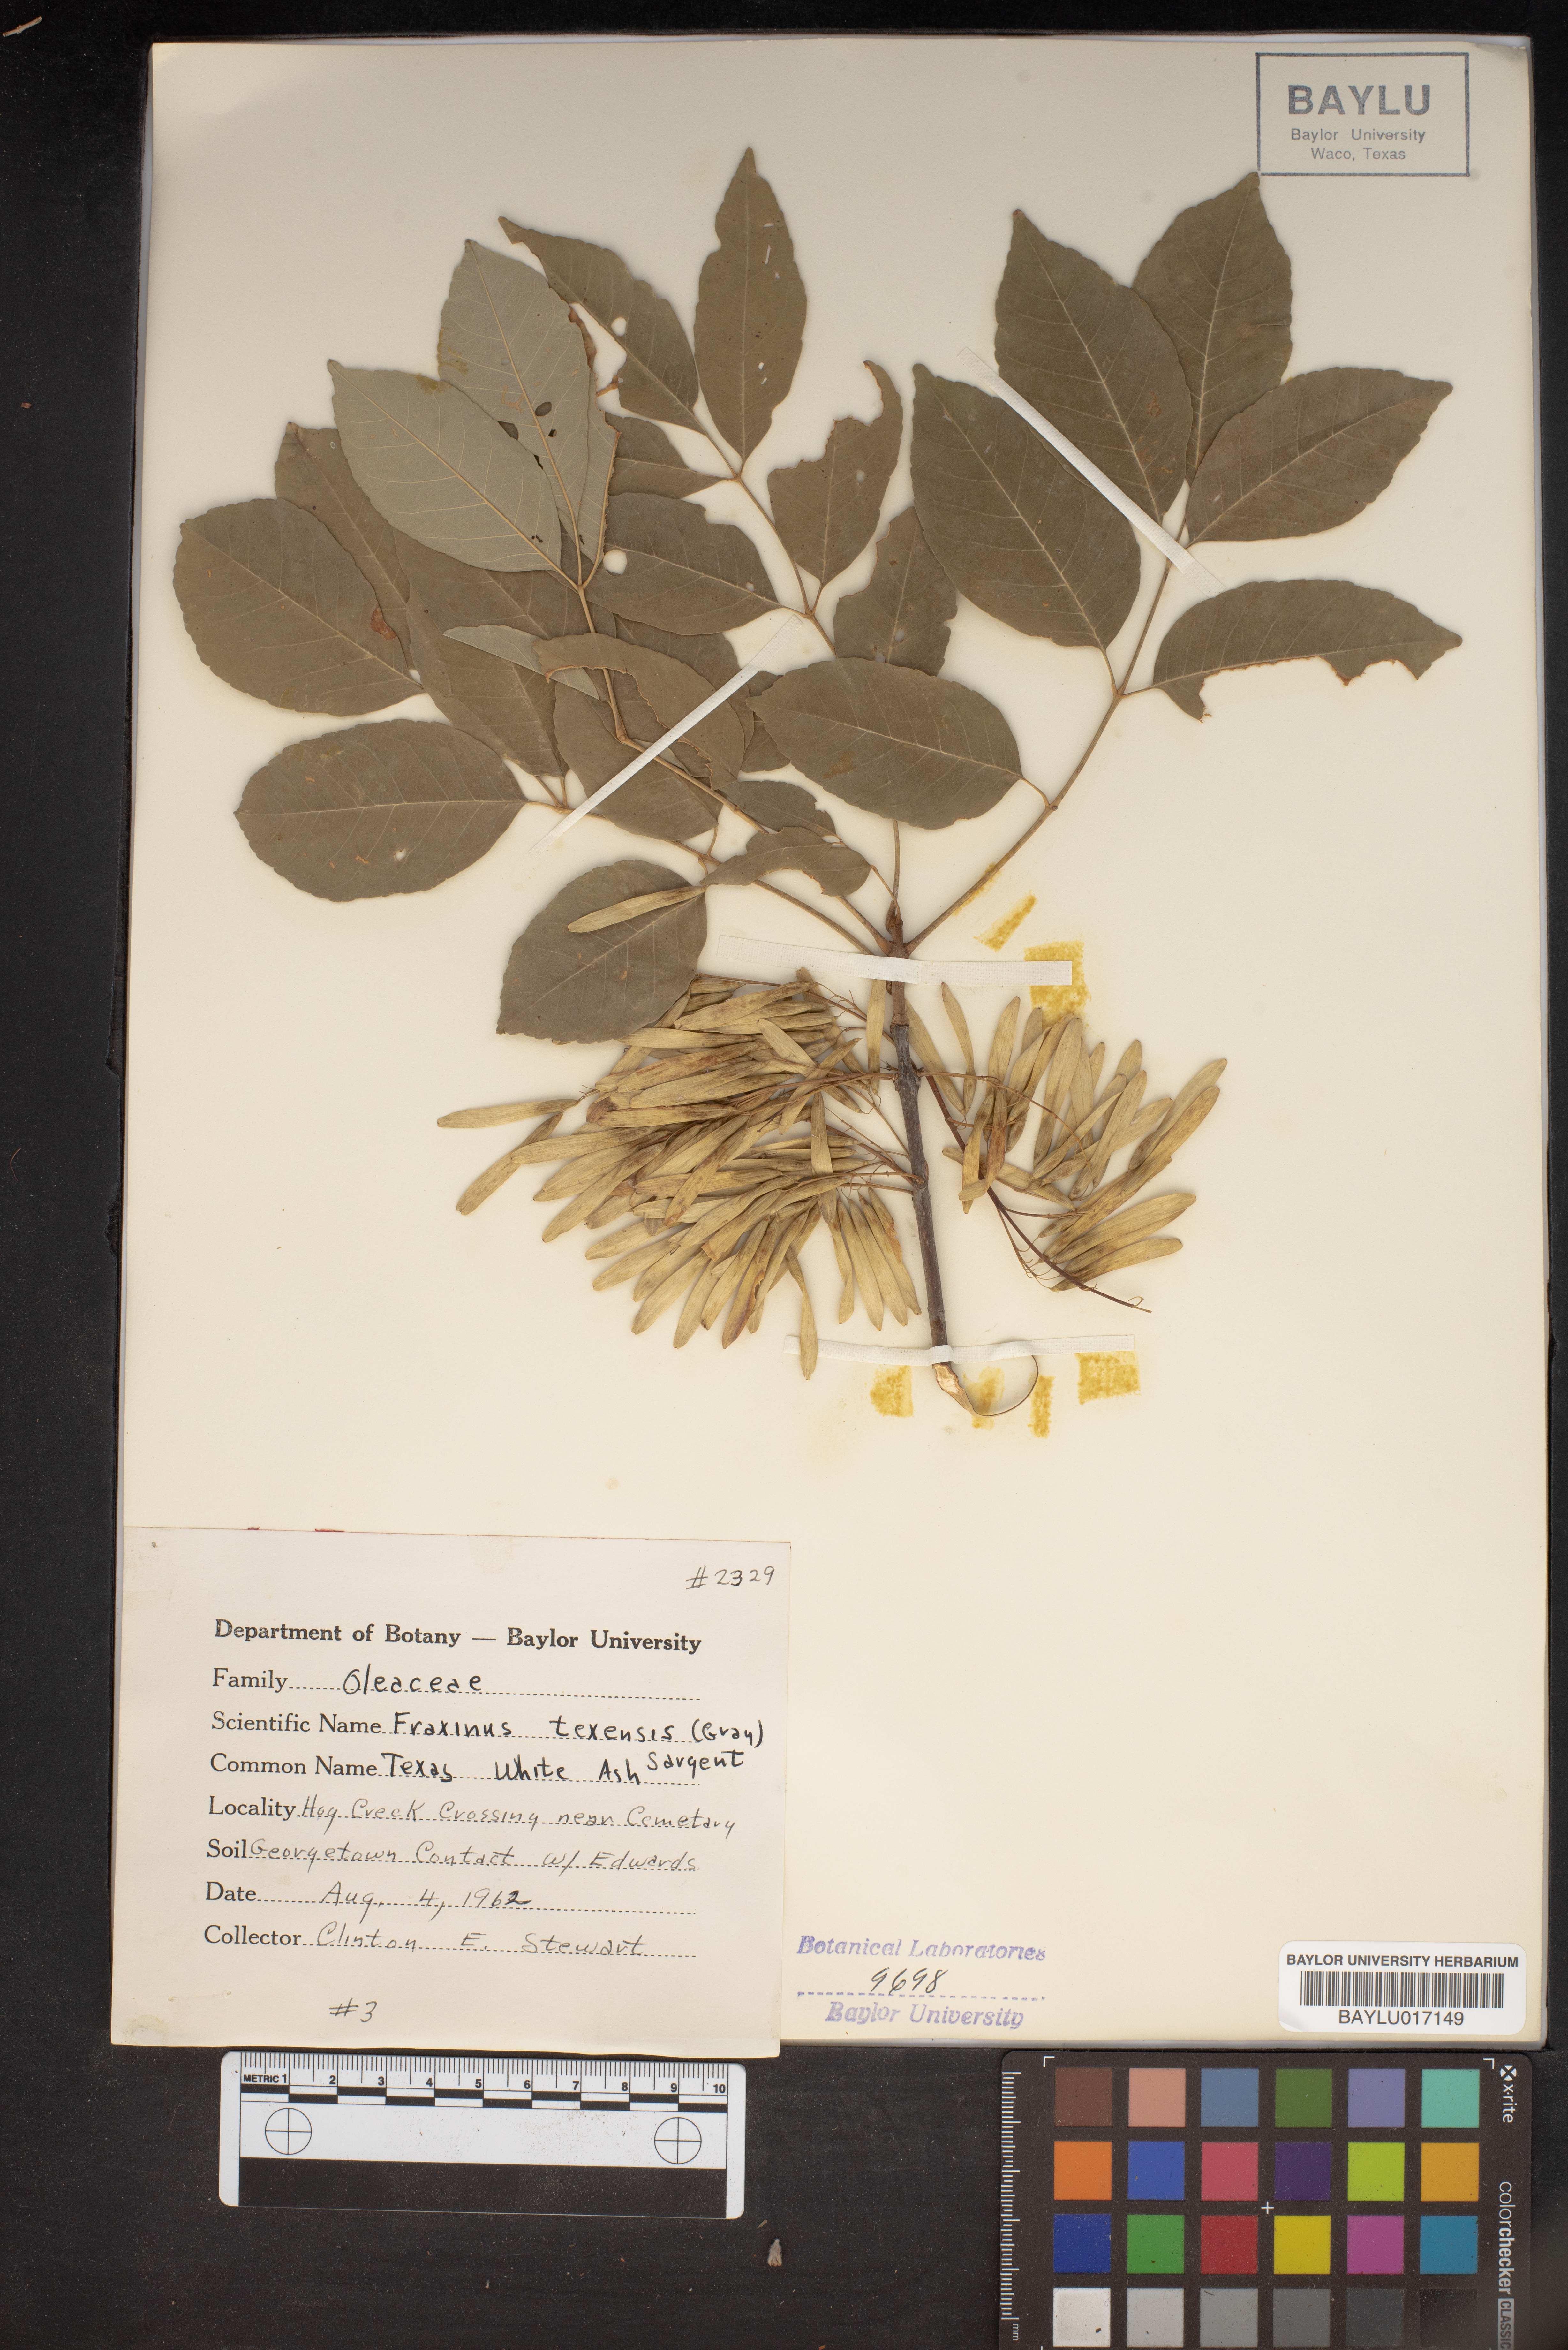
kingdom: Plantae
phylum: Tracheophyta
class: Magnoliopsida
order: Lamiales
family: Oleaceae
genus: Fraxinus
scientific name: Fraxinus albicans
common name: Texas ash
